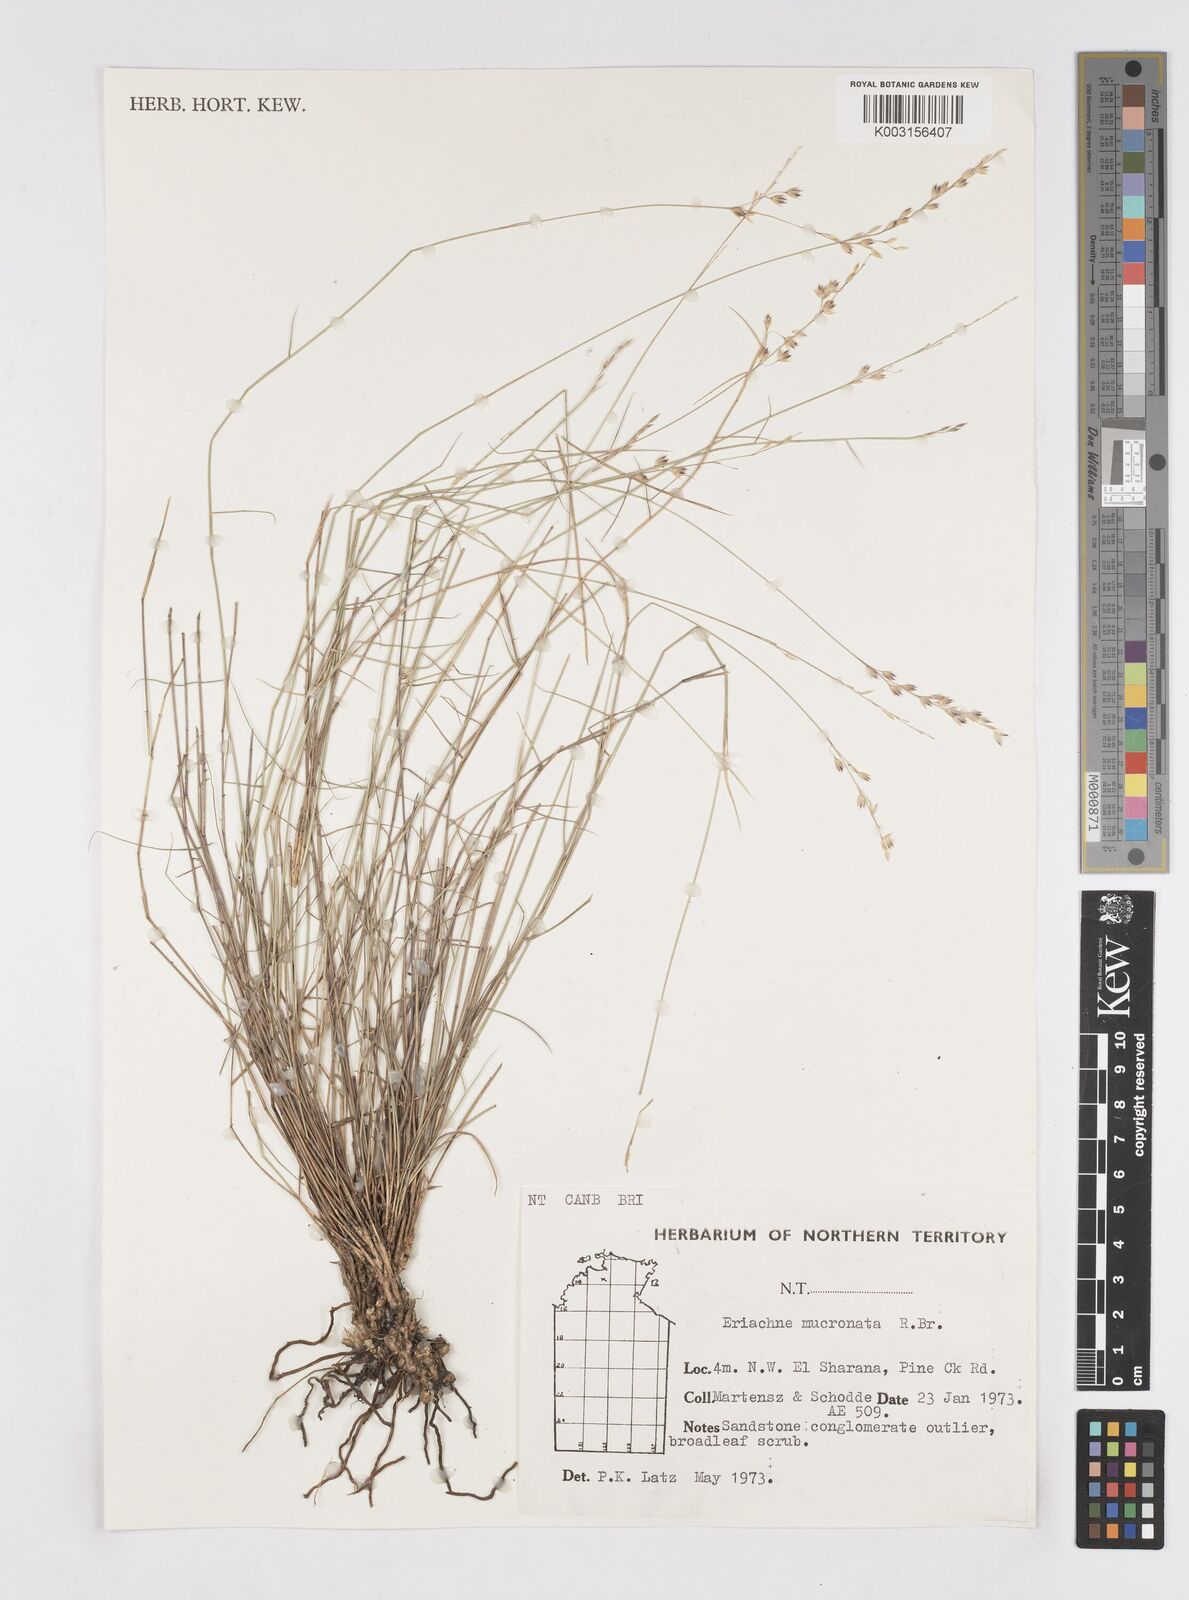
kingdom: Plantae
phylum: Tracheophyta
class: Liliopsida
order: Poales
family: Poaceae
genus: Eriachne
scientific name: Eriachne mucronata
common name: Mountain wanderrie grass
